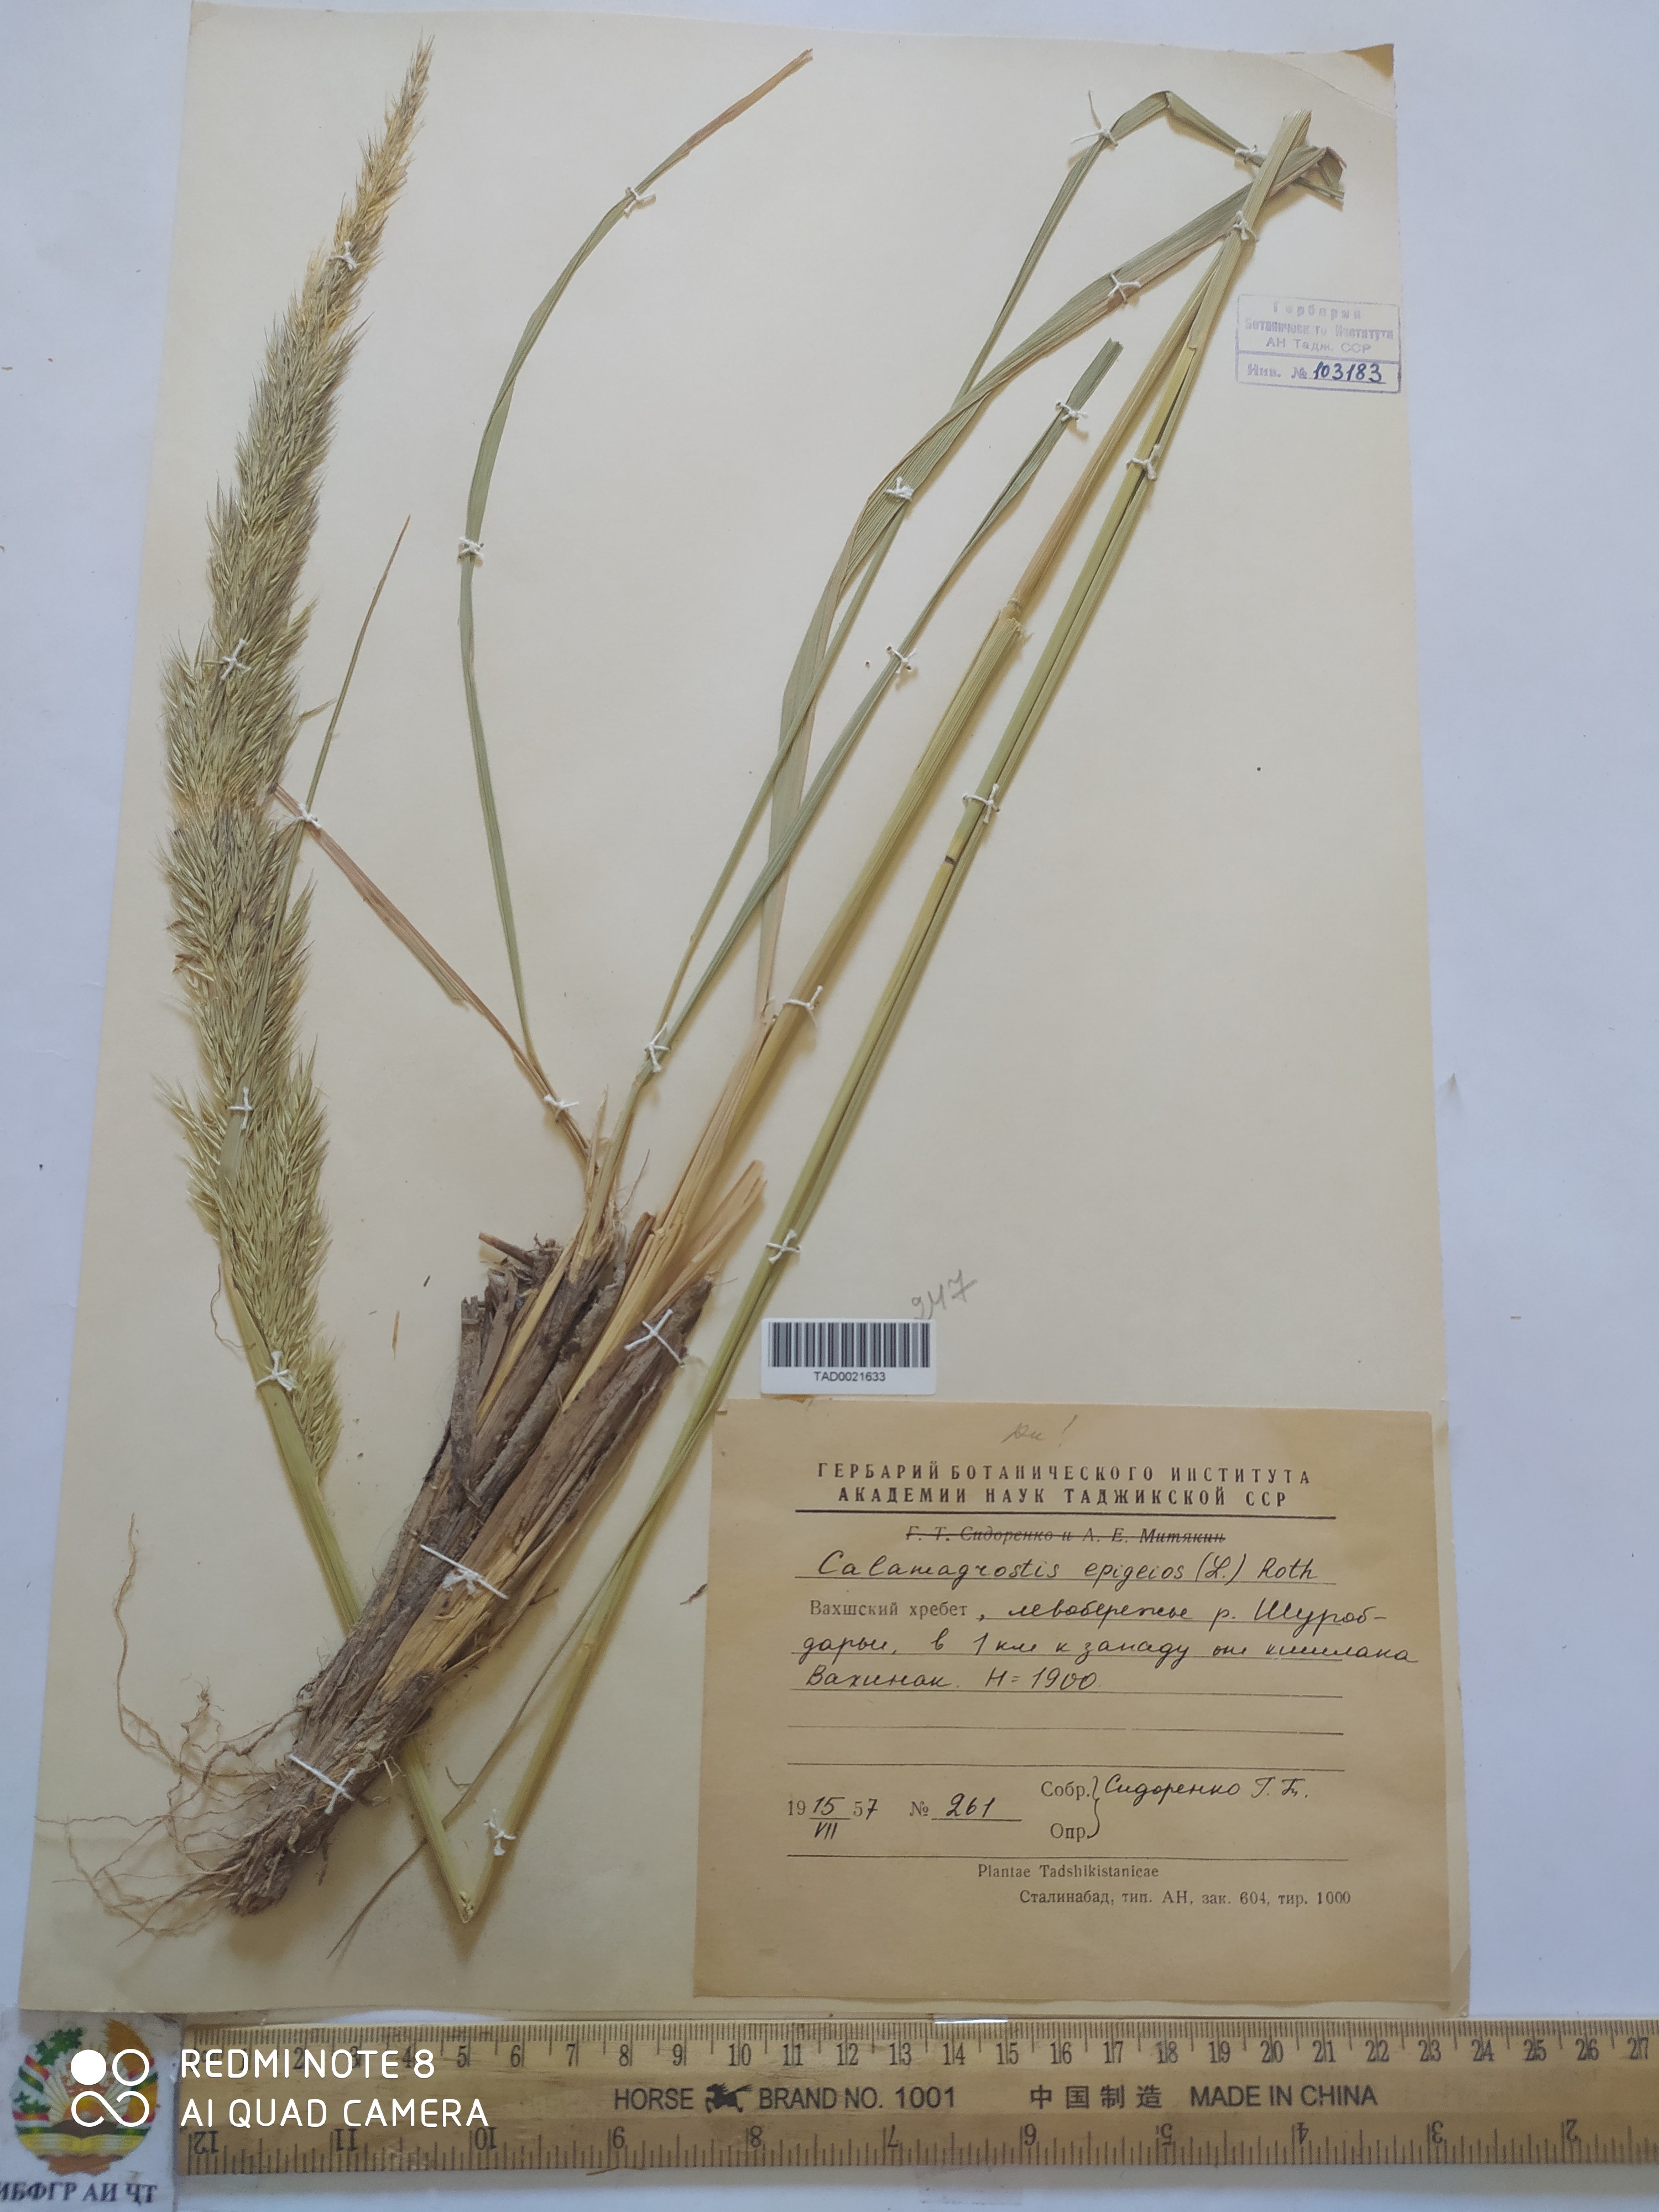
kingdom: Plantae
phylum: Tracheophyta
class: Liliopsida
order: Poales
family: Poaceae
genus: Calamagrostis
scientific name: Calamagrostis epigejos
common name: Wood small-reed
